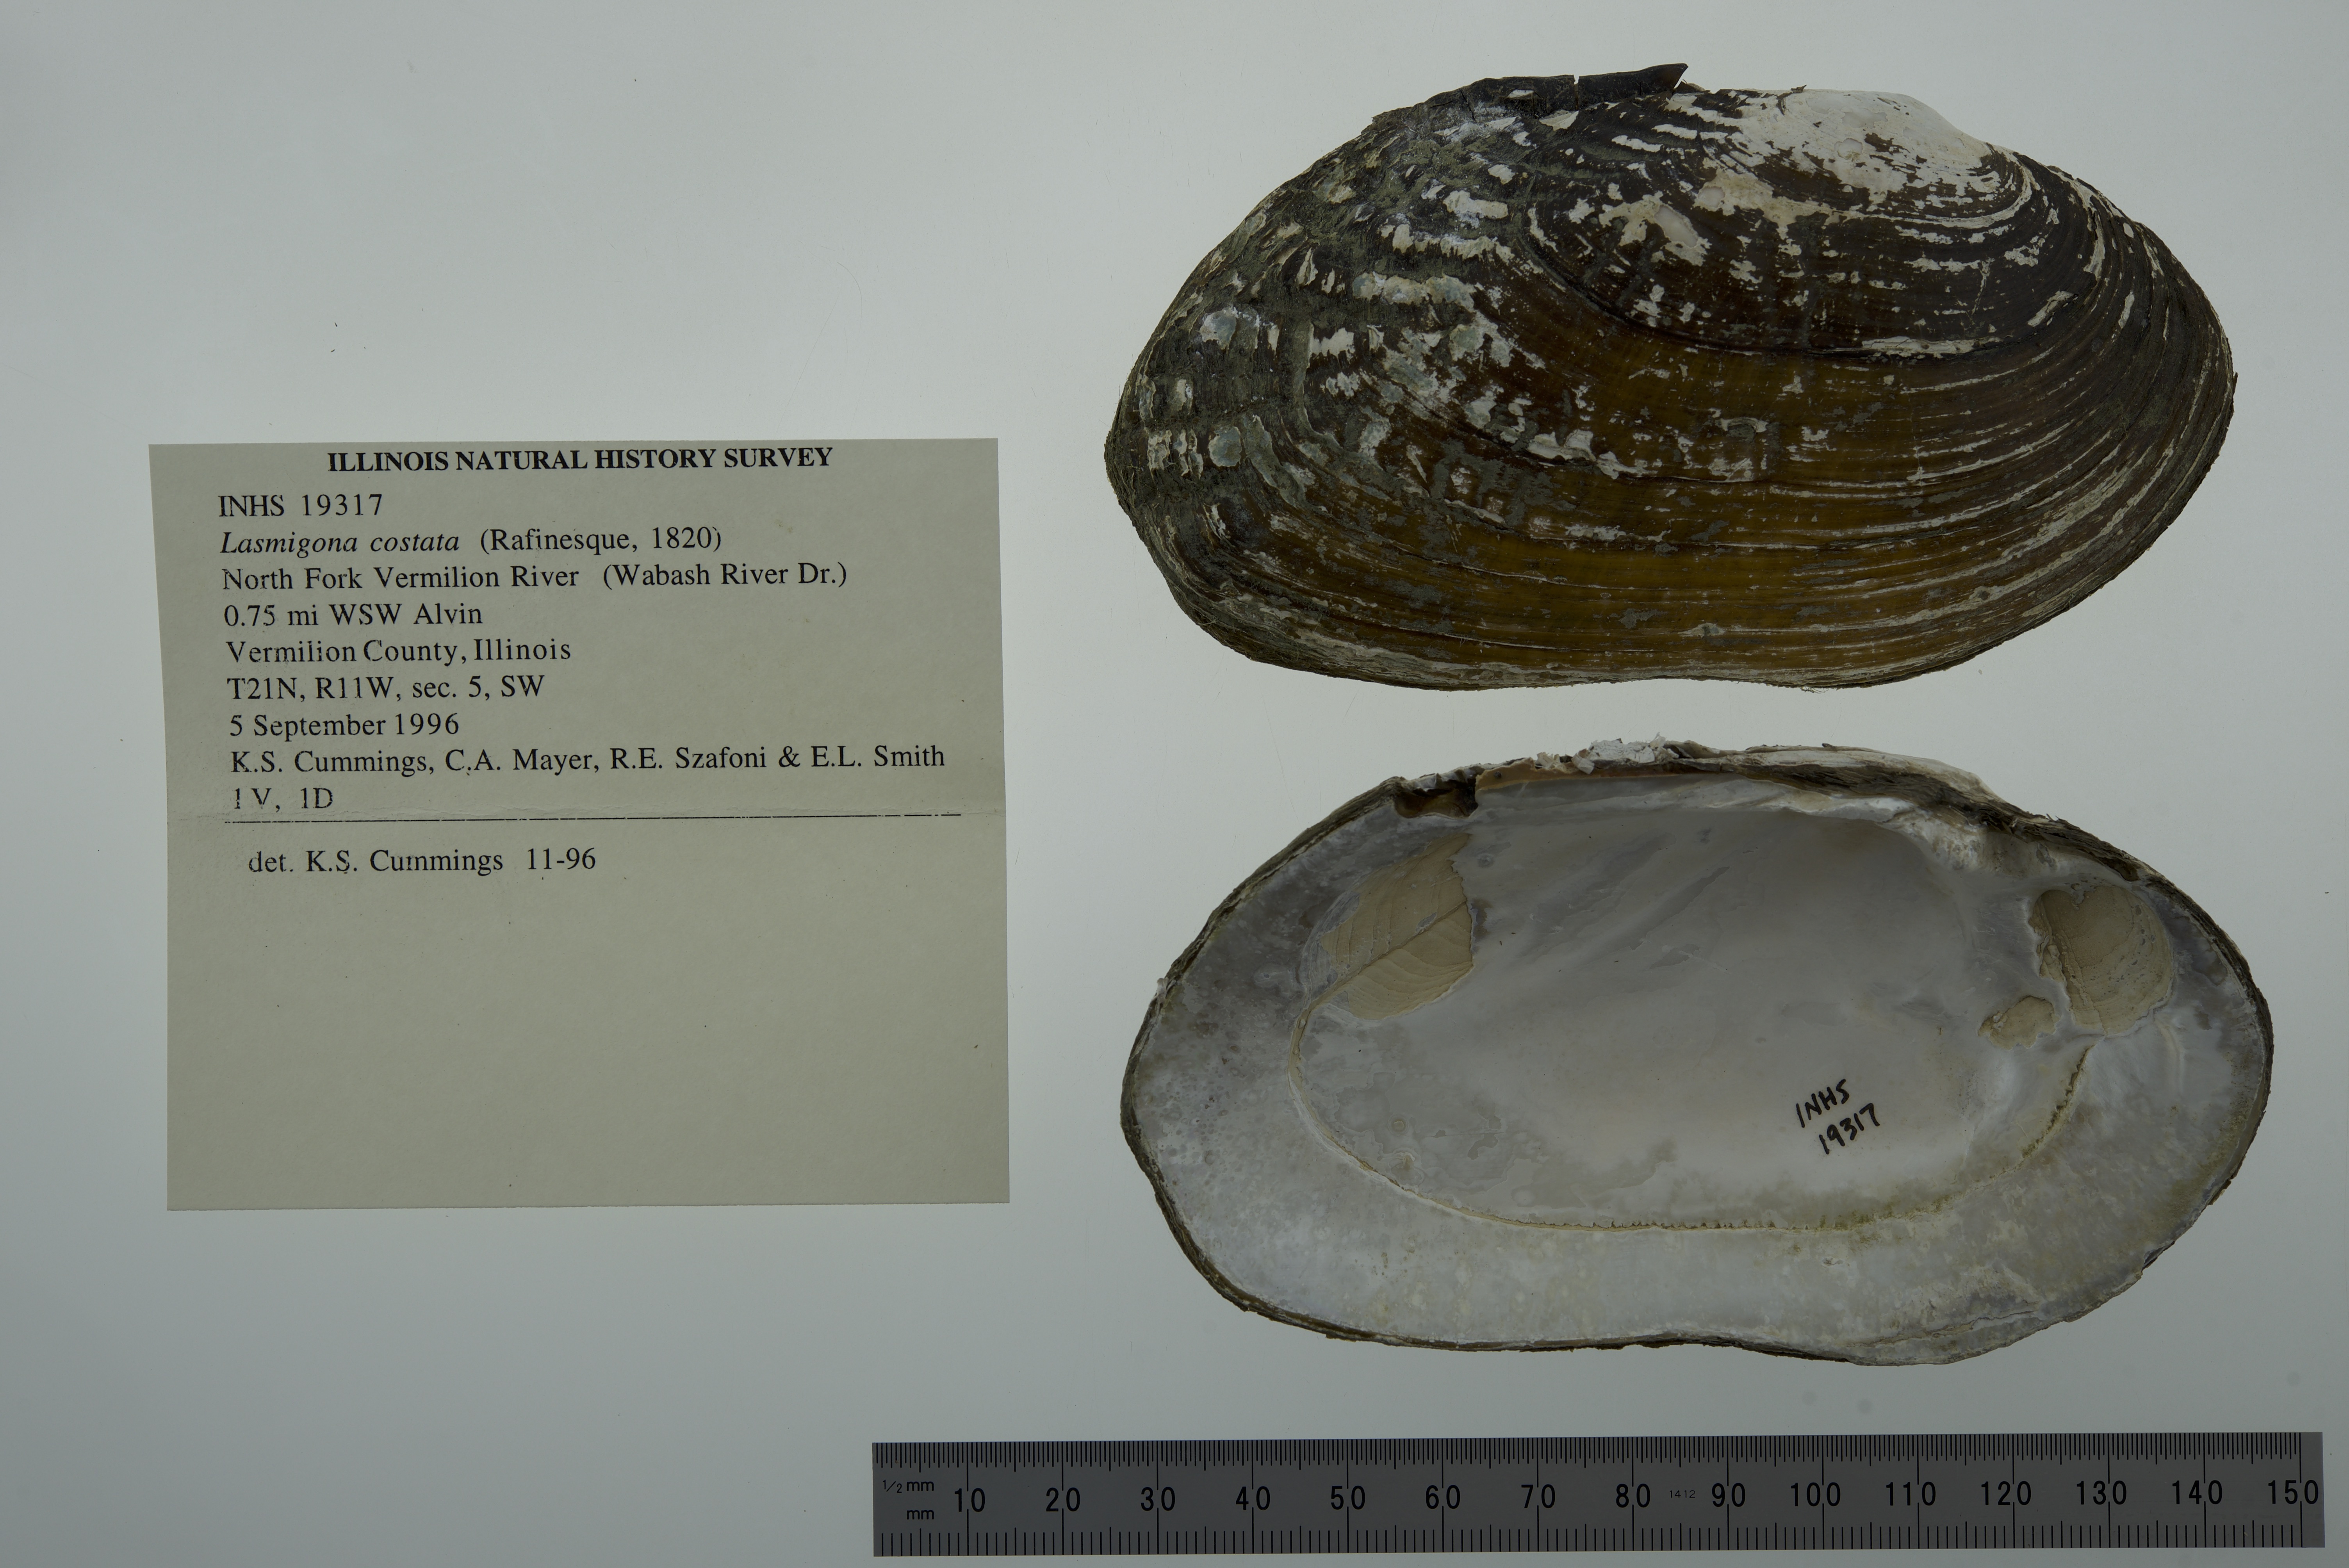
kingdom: Animalia
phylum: Mollusca
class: Bivalvia
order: Unionida
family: Unionidae
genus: Lasmigona
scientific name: Lasmigona costata
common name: Flutedshell
